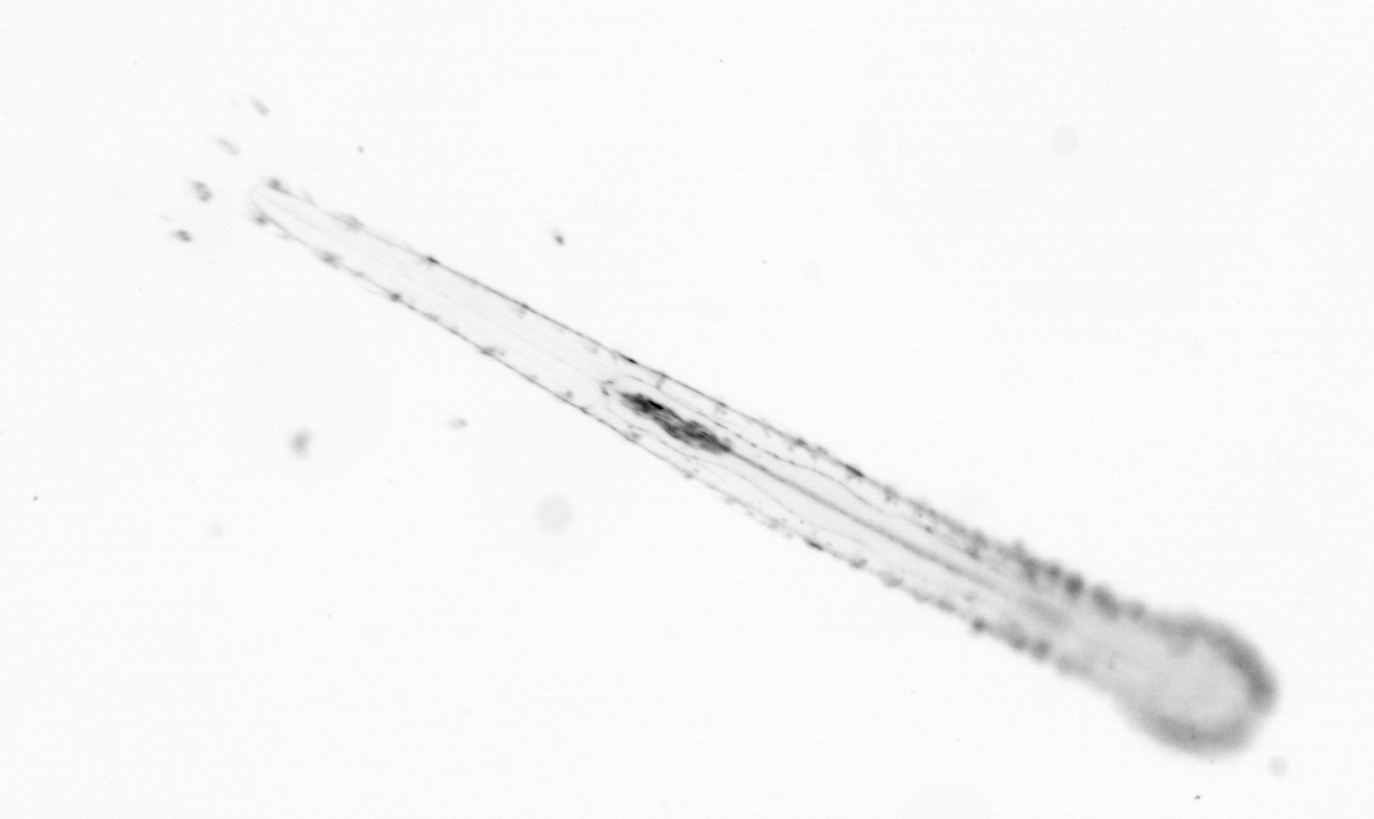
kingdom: Animalia
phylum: Chaetognatha
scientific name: Chaetognatha
